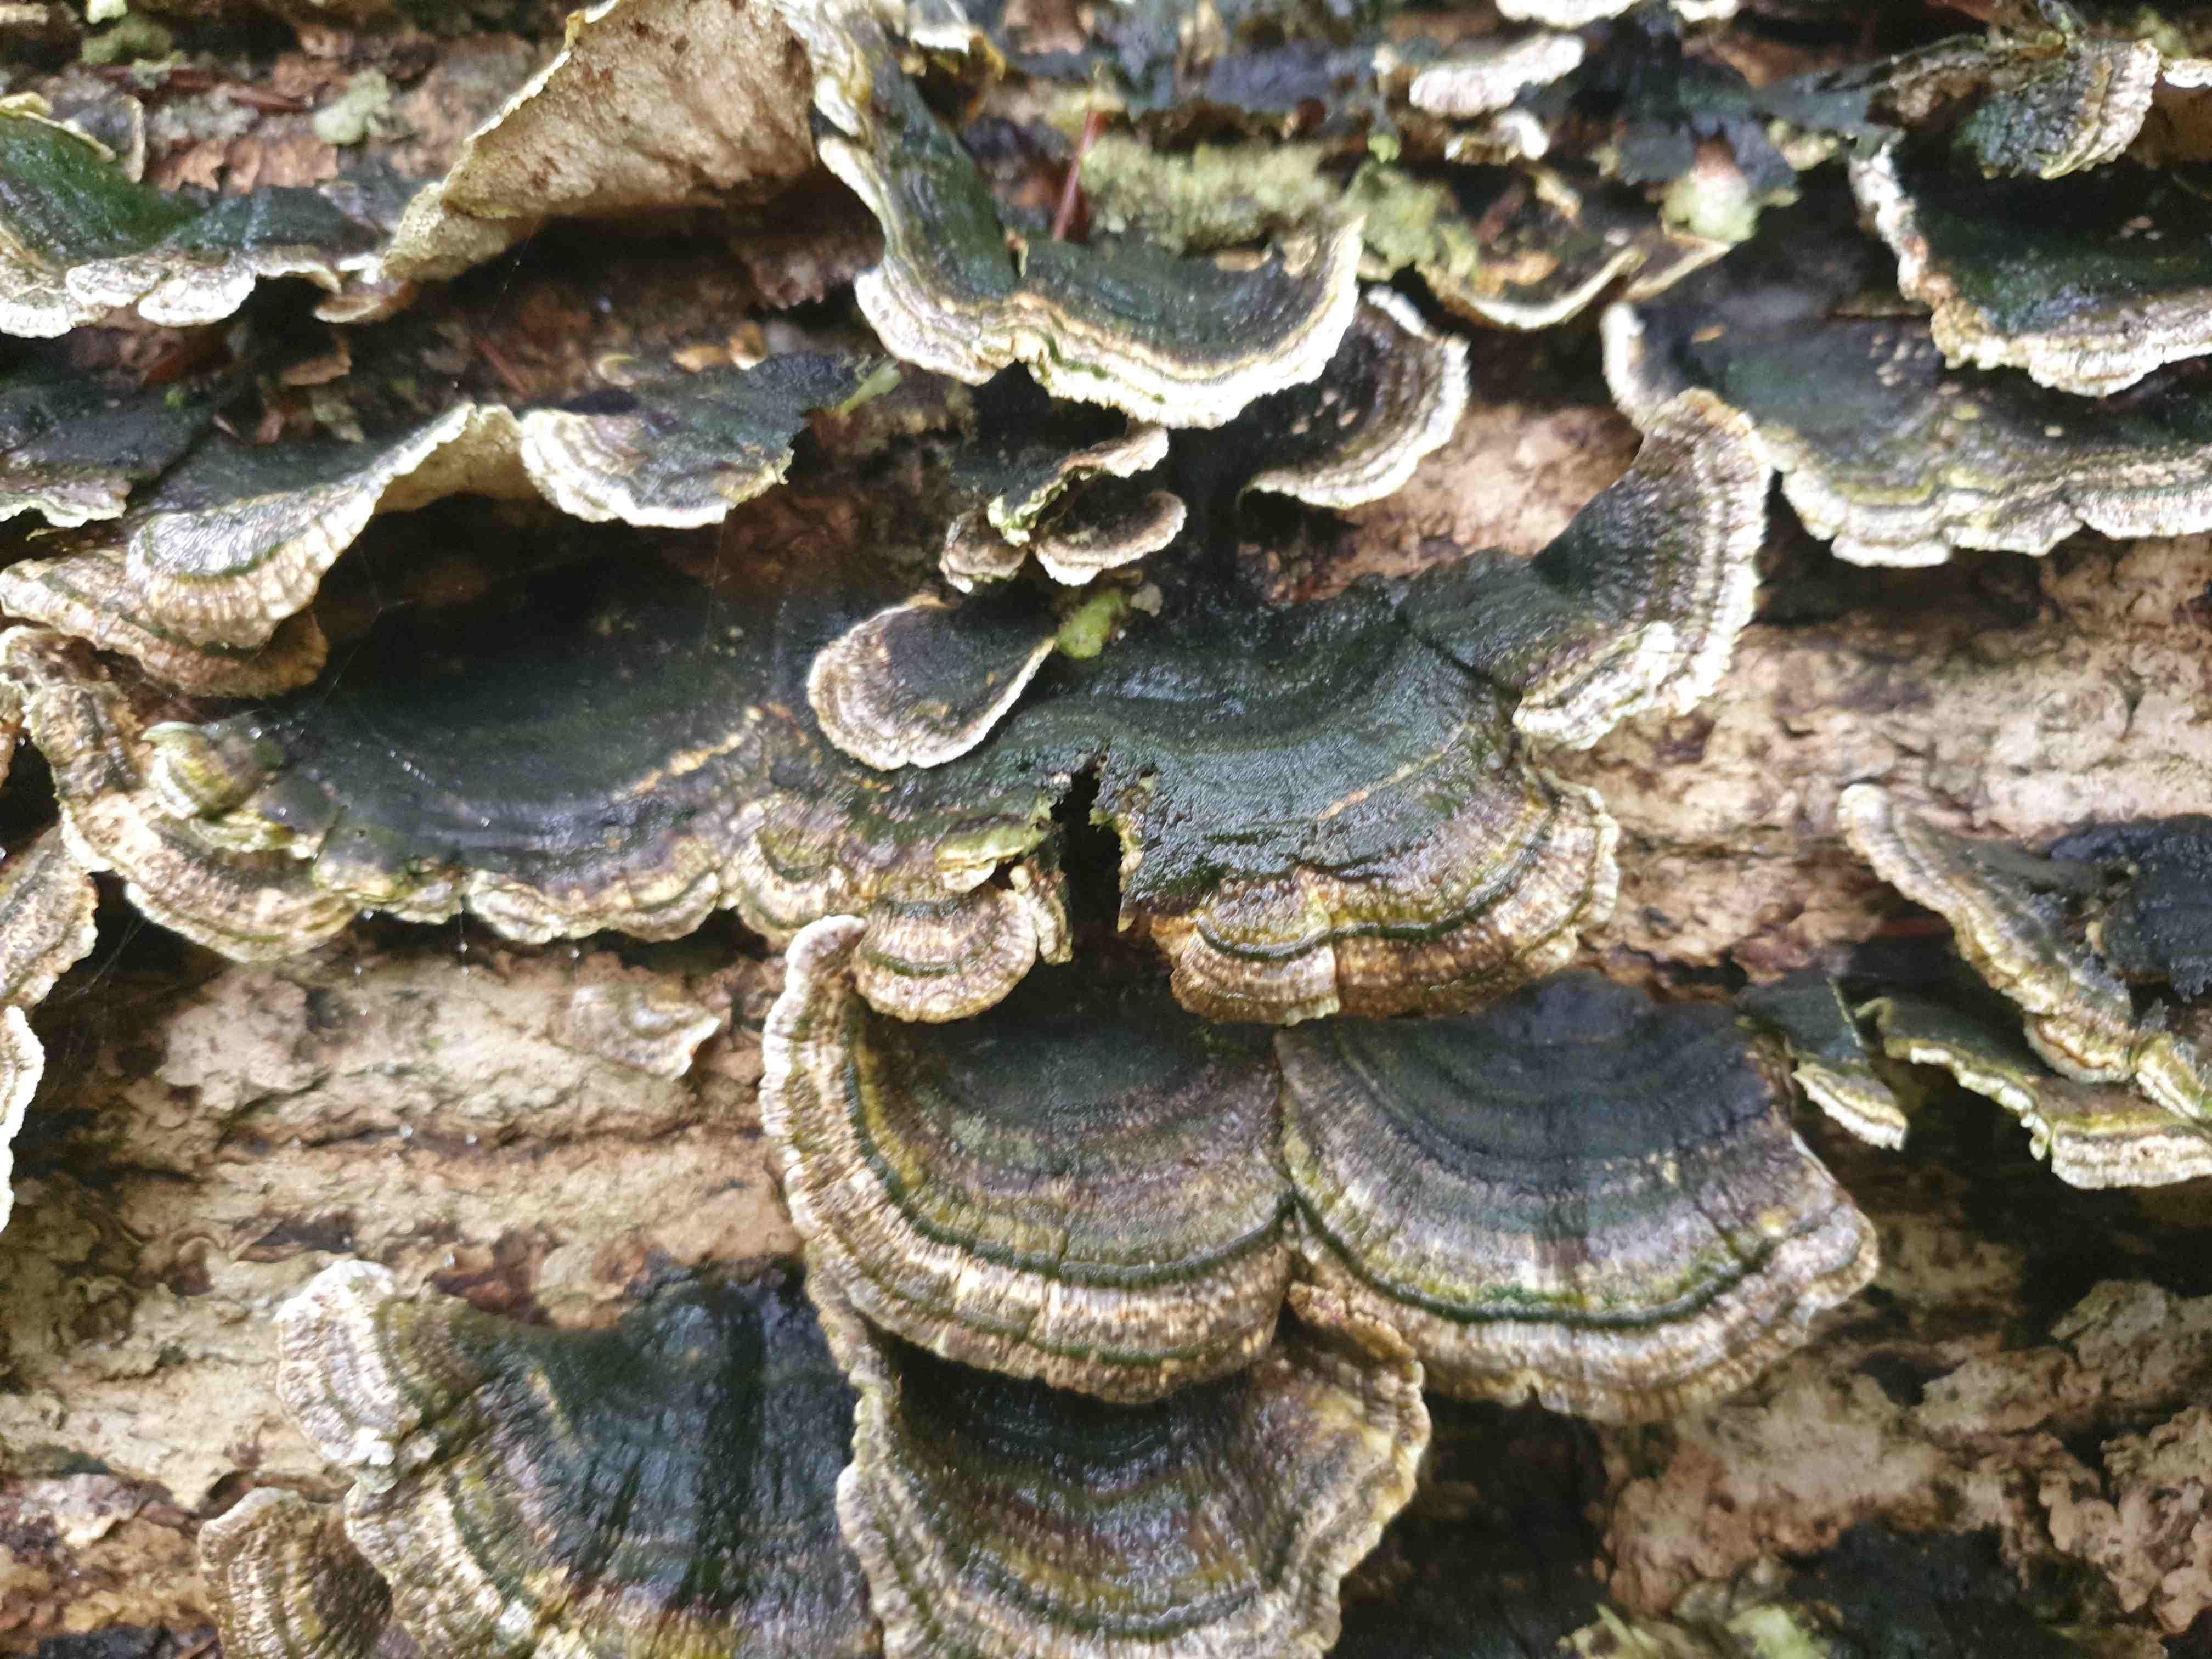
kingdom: Fungi
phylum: Basidiomycota
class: Agaricomycetes
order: Polyporales
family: Polyporaceae
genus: Trametes
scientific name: Trametes versicolor
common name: broget læderporesvamp
